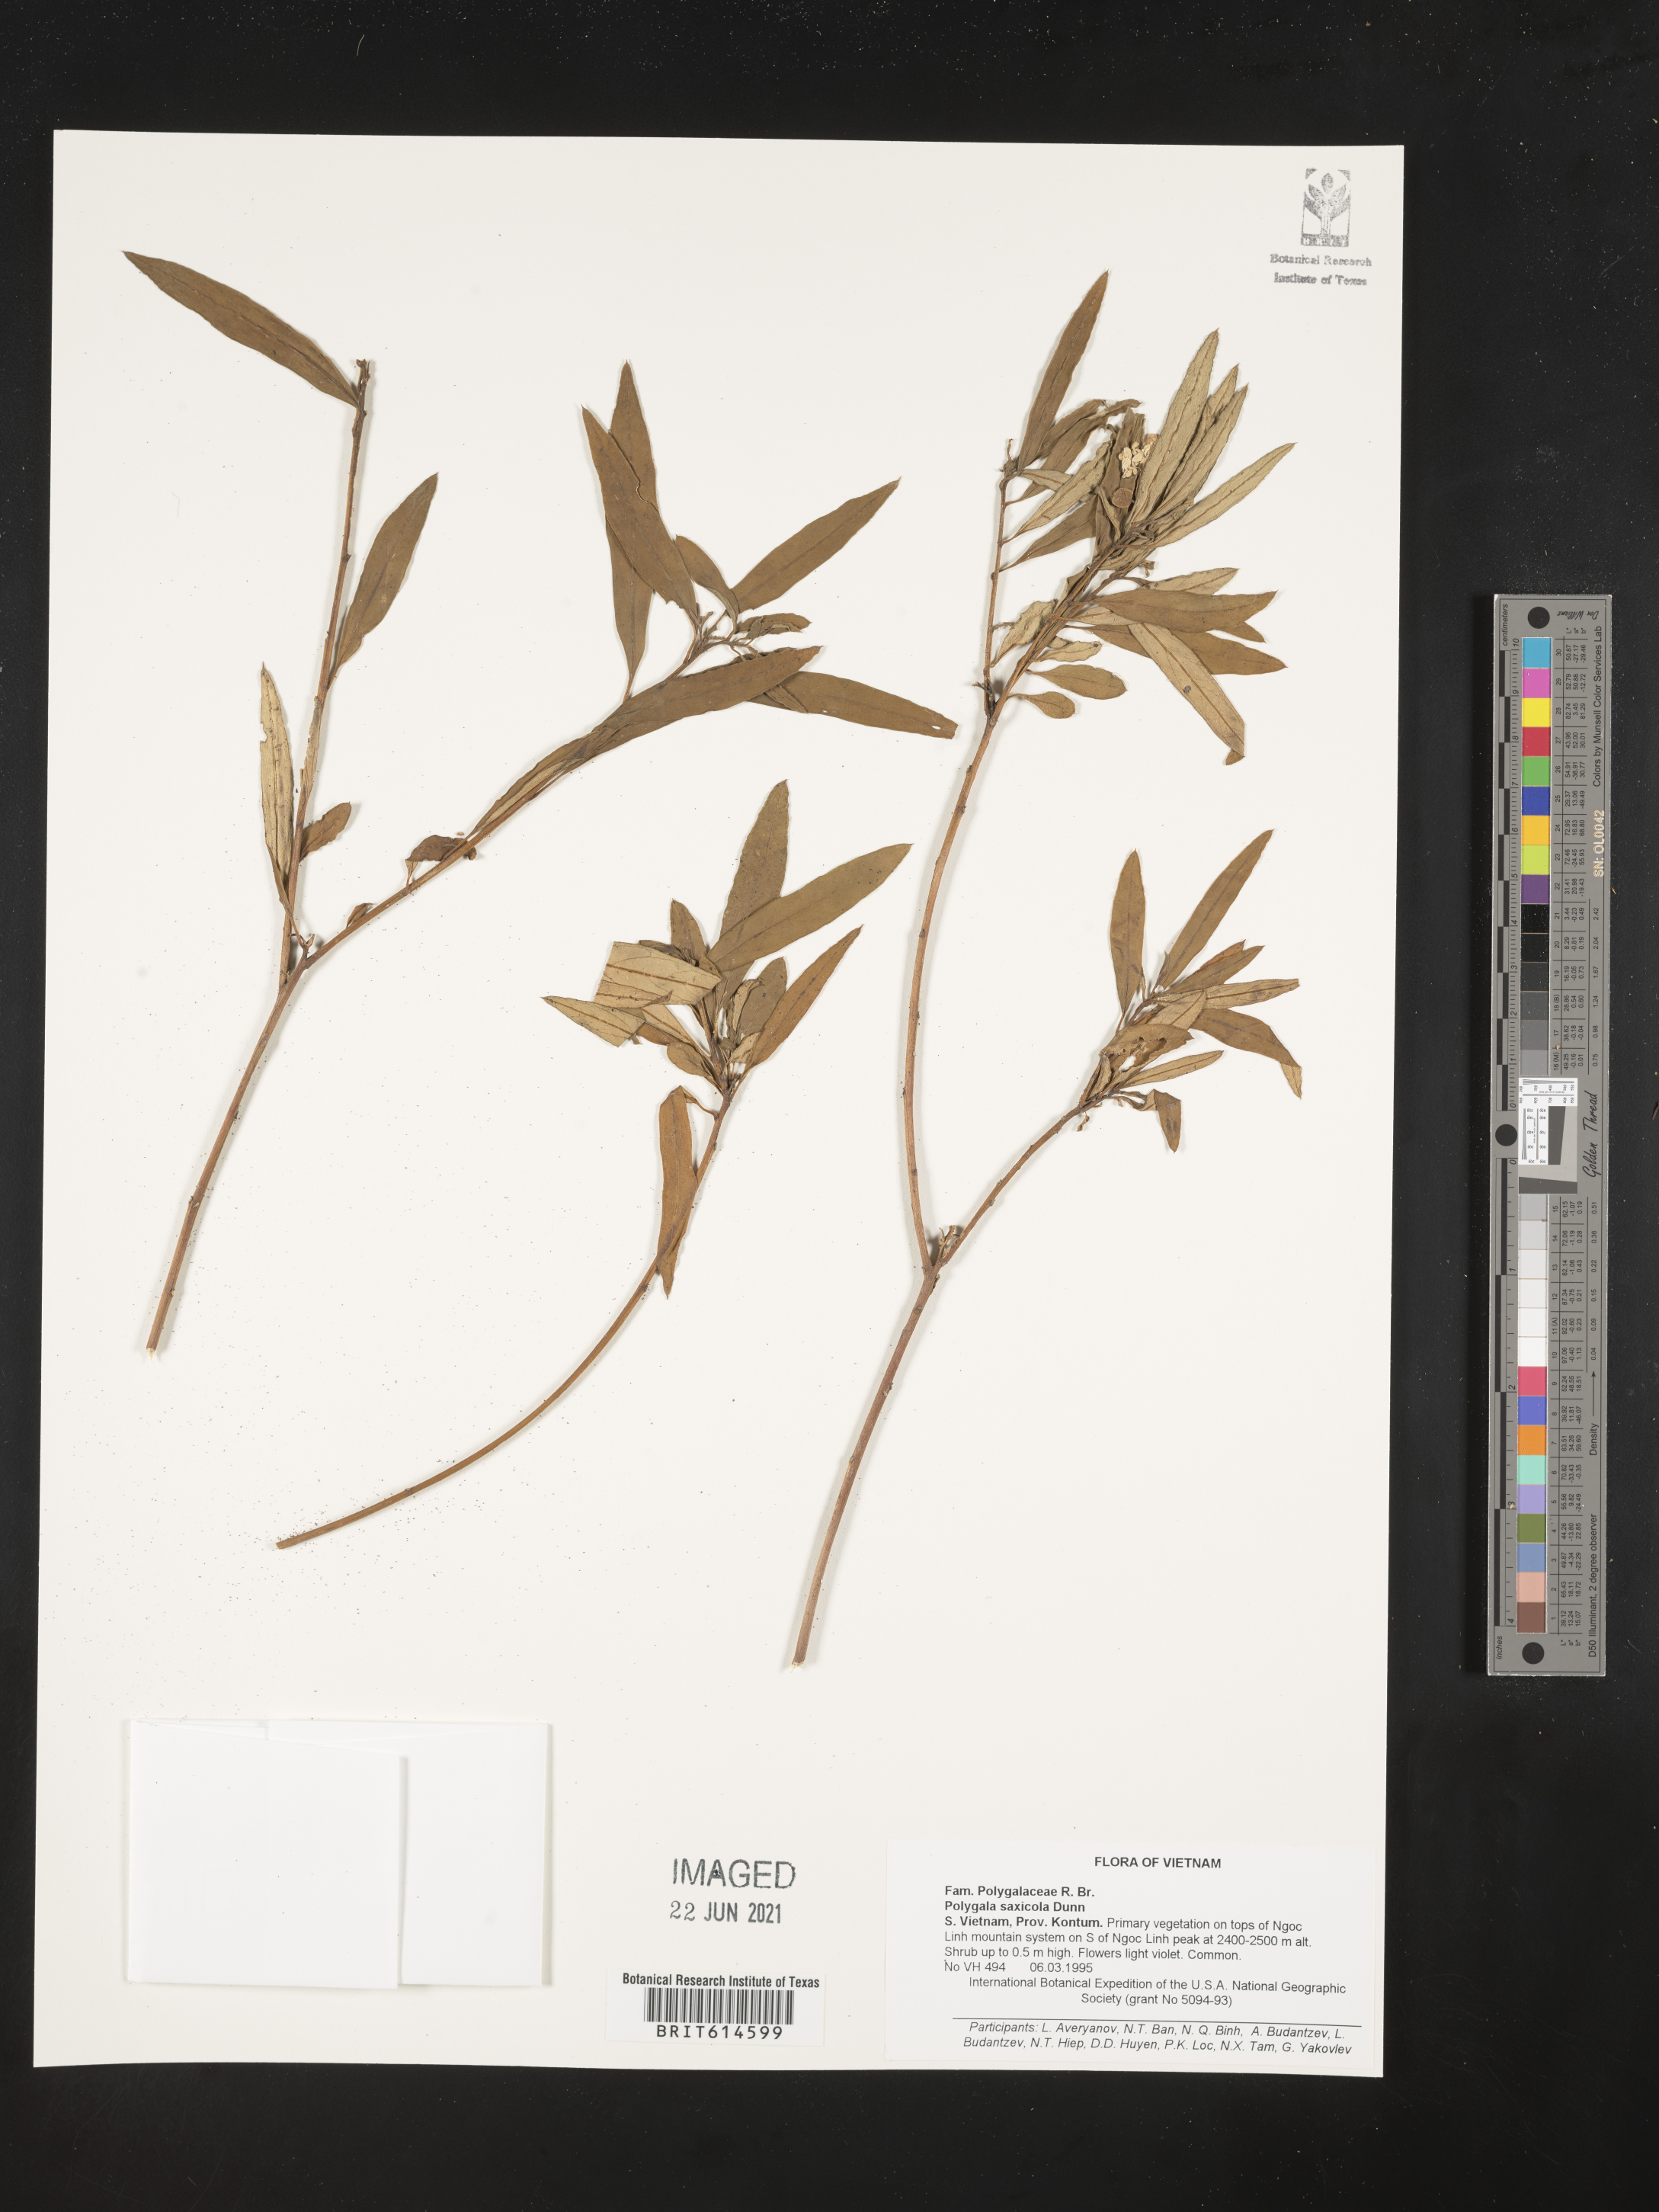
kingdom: Plantae
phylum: Tracheophyta
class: Magnoliopsida
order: Fabales
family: Polygalaceae
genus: Polygala
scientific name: Polygala saxicola
